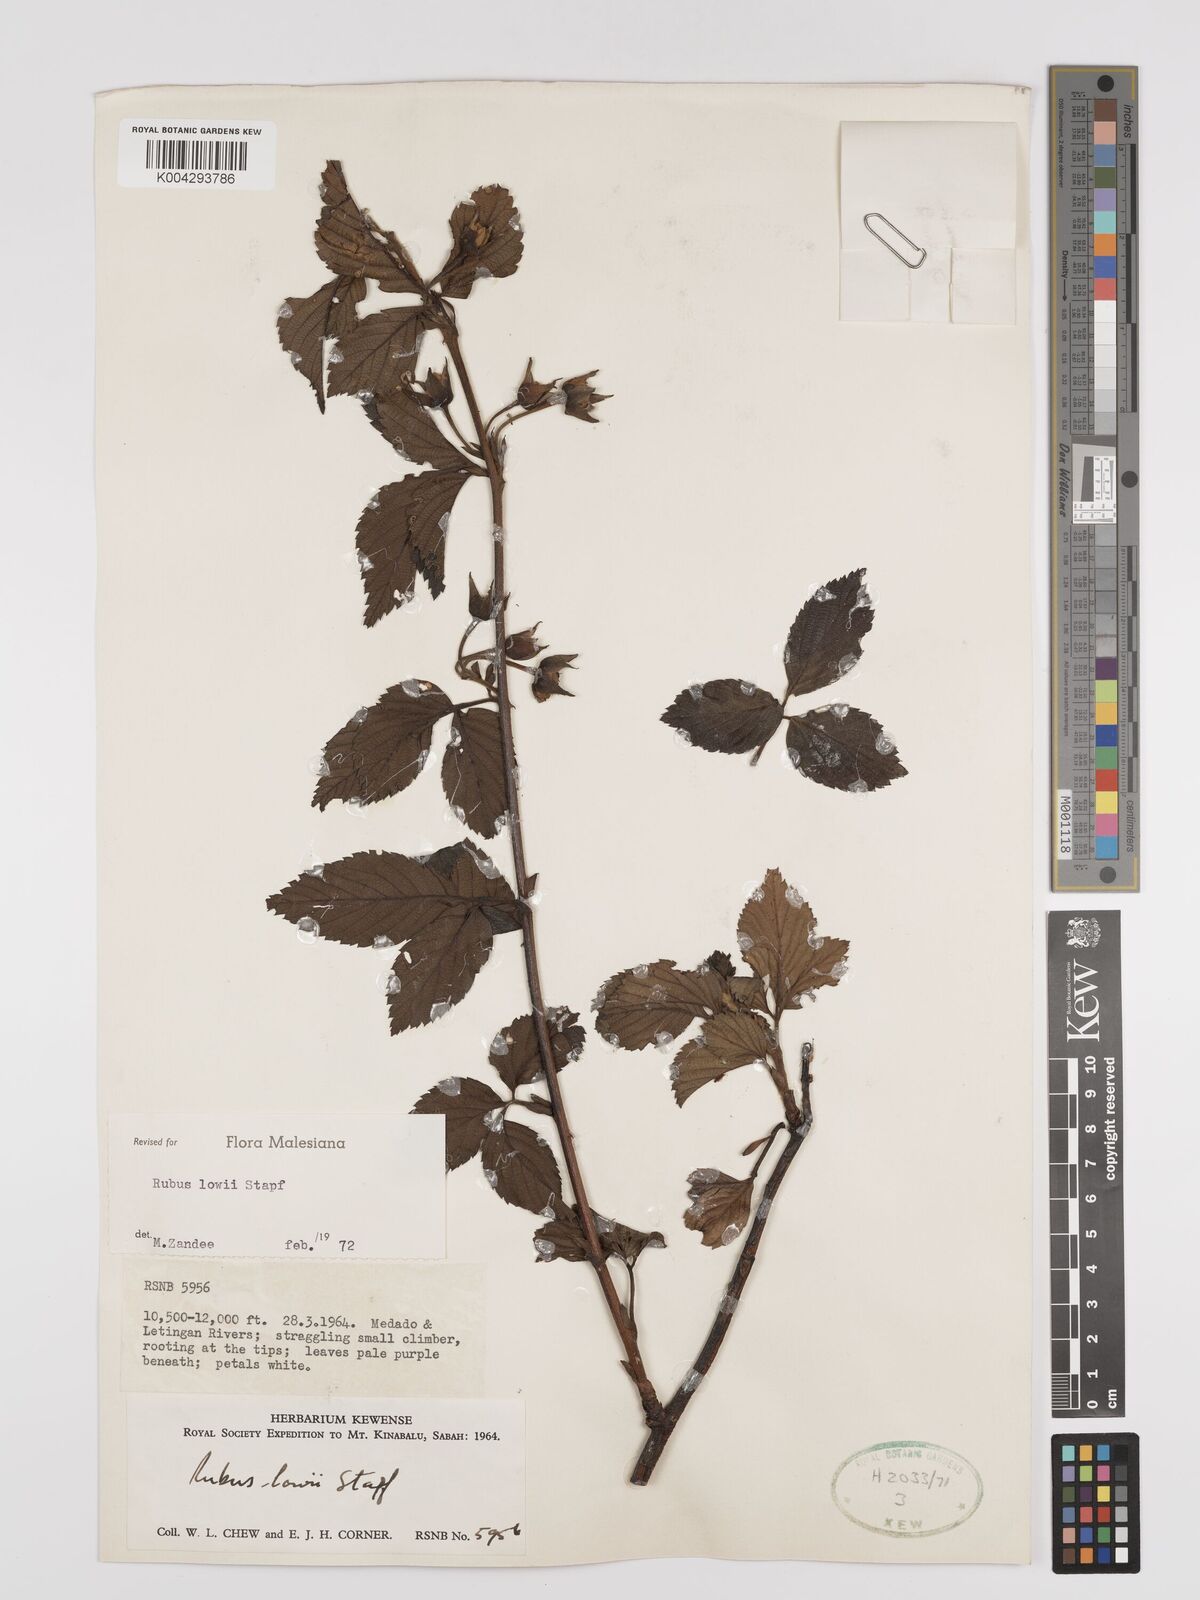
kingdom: Plantae
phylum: Tracheophyta
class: Magnoliopsida
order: Rosales
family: Rosaceae
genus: Rubus
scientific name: Rubus lowii
